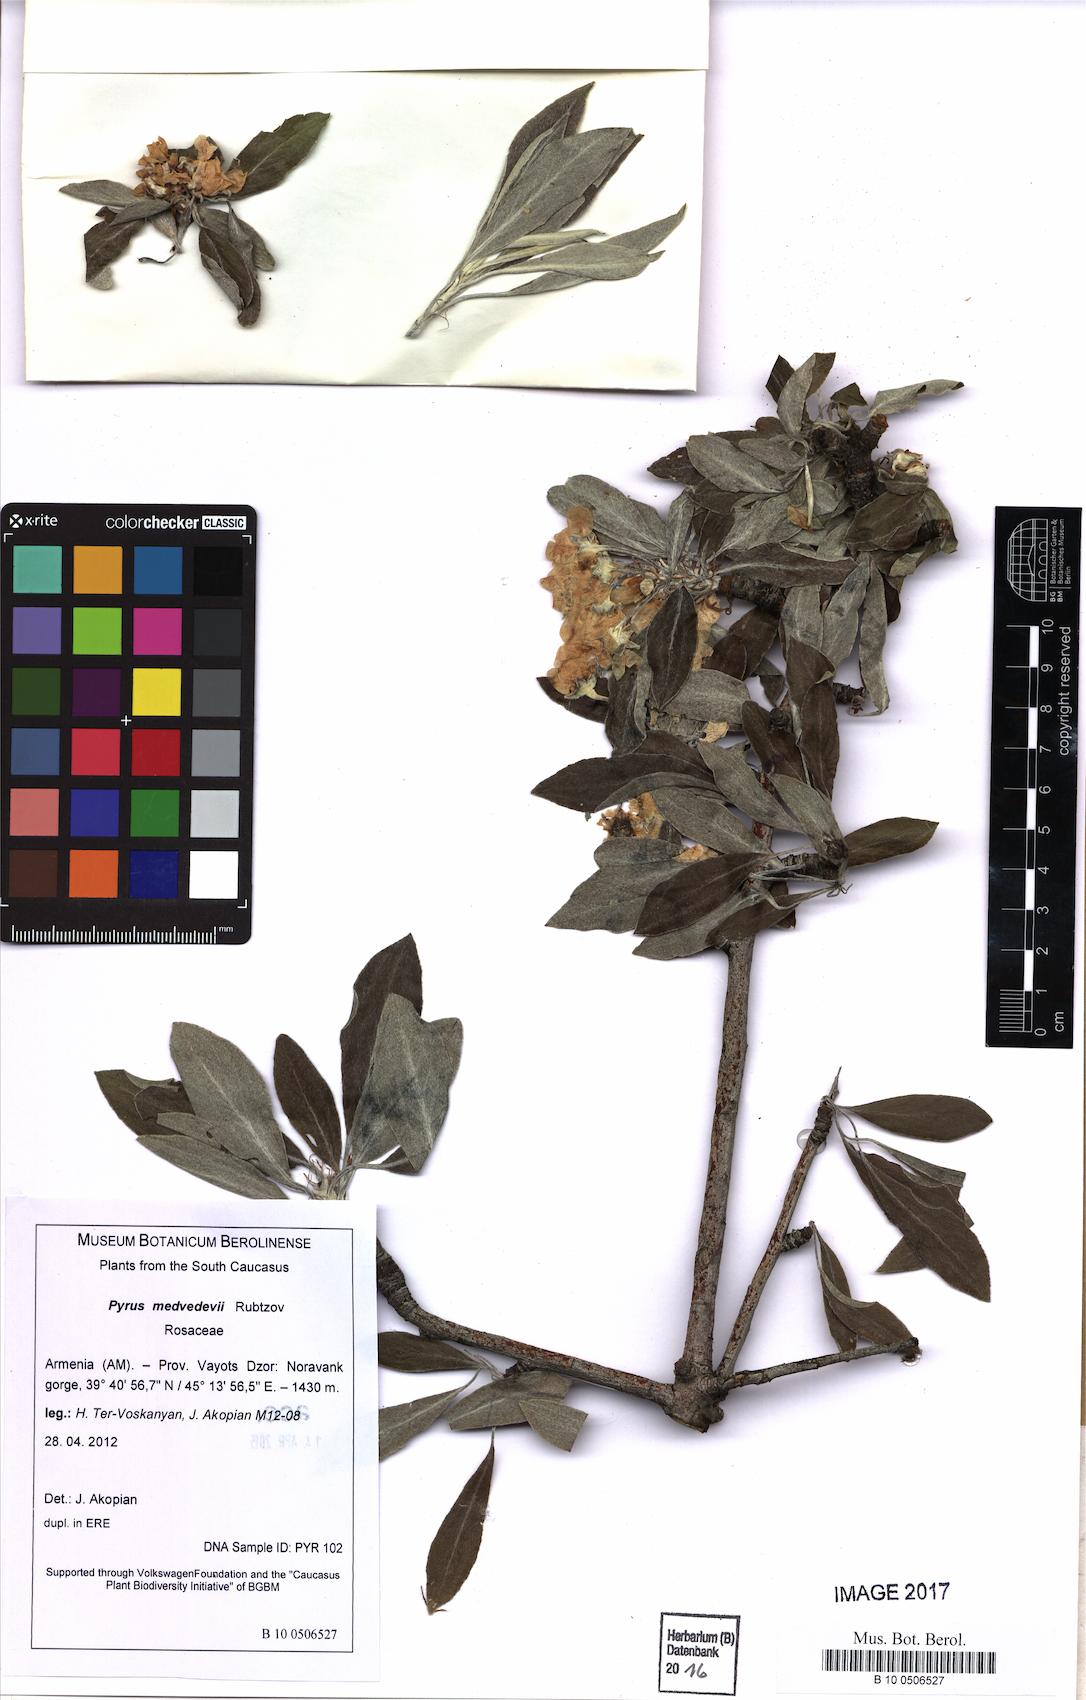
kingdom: Plantae
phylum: Tracheophyta
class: Magnoliopsida
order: Rosales
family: Rosaceae
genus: Pyrus
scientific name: Pyrus medvedevii
